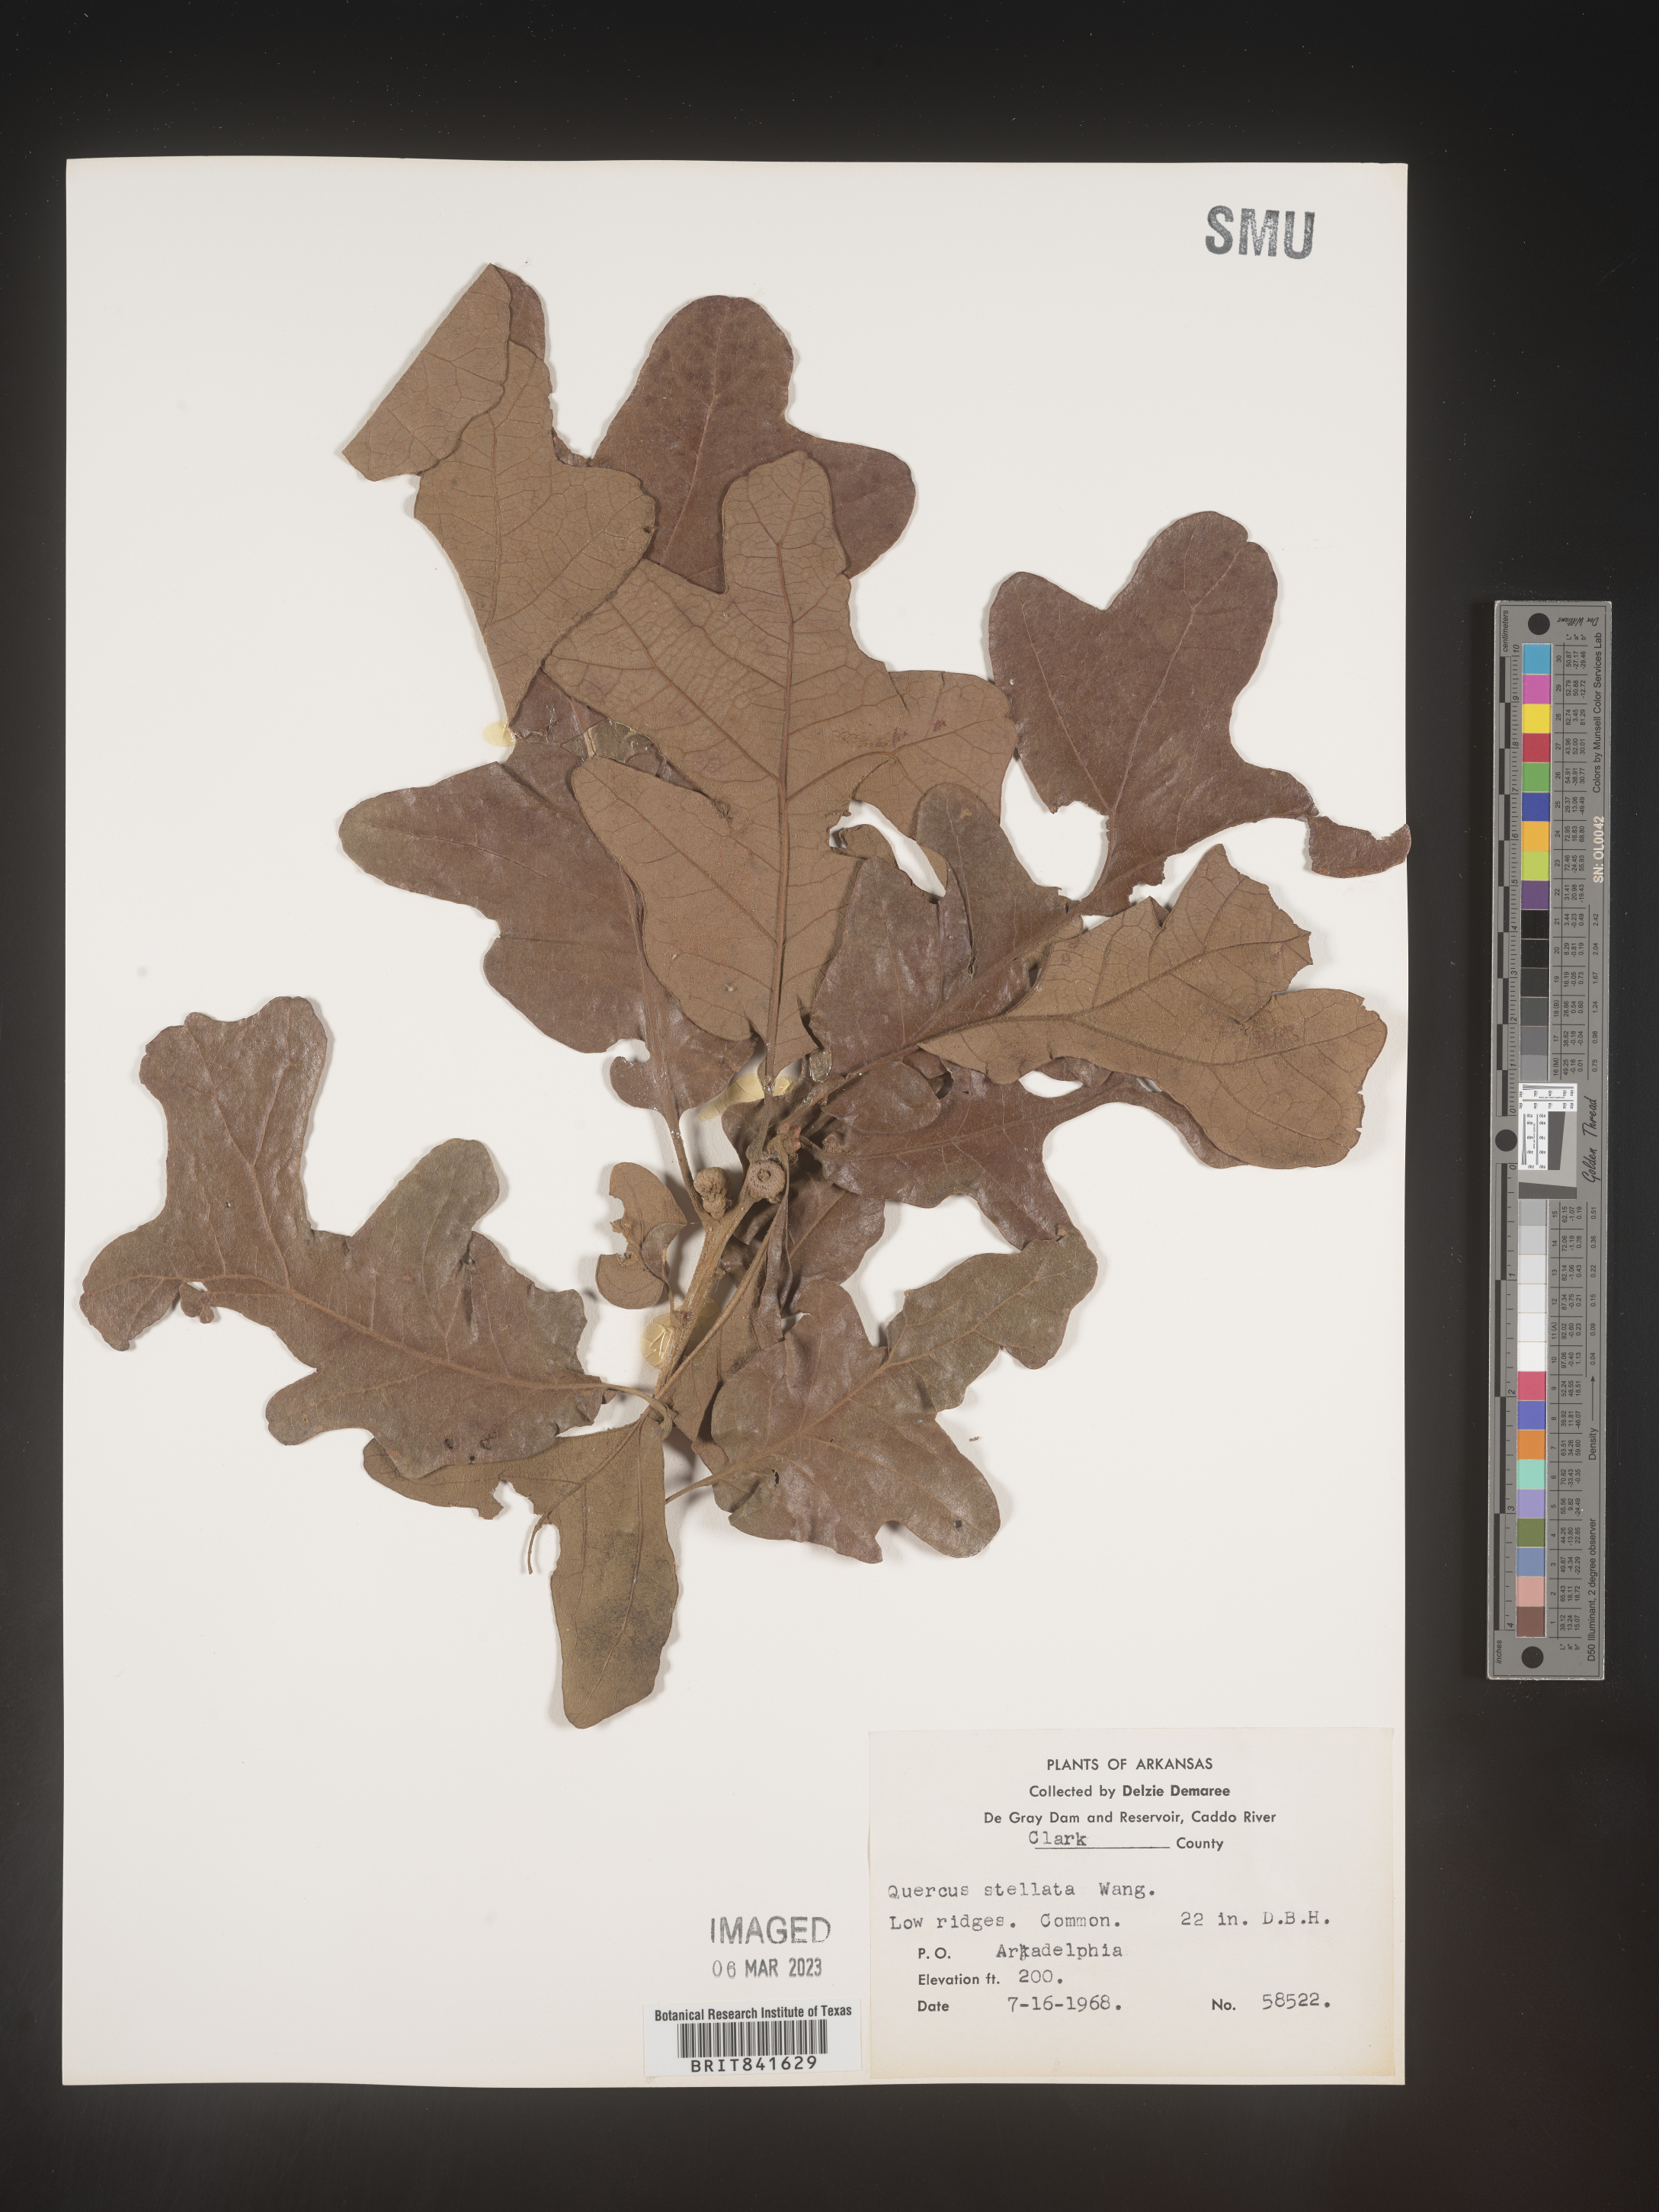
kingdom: Plantae
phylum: Tracheophyta
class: Magnoliopsida
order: Fagales
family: Fagaceae
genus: Quercus
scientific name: Quercus stellata
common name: Post oak
